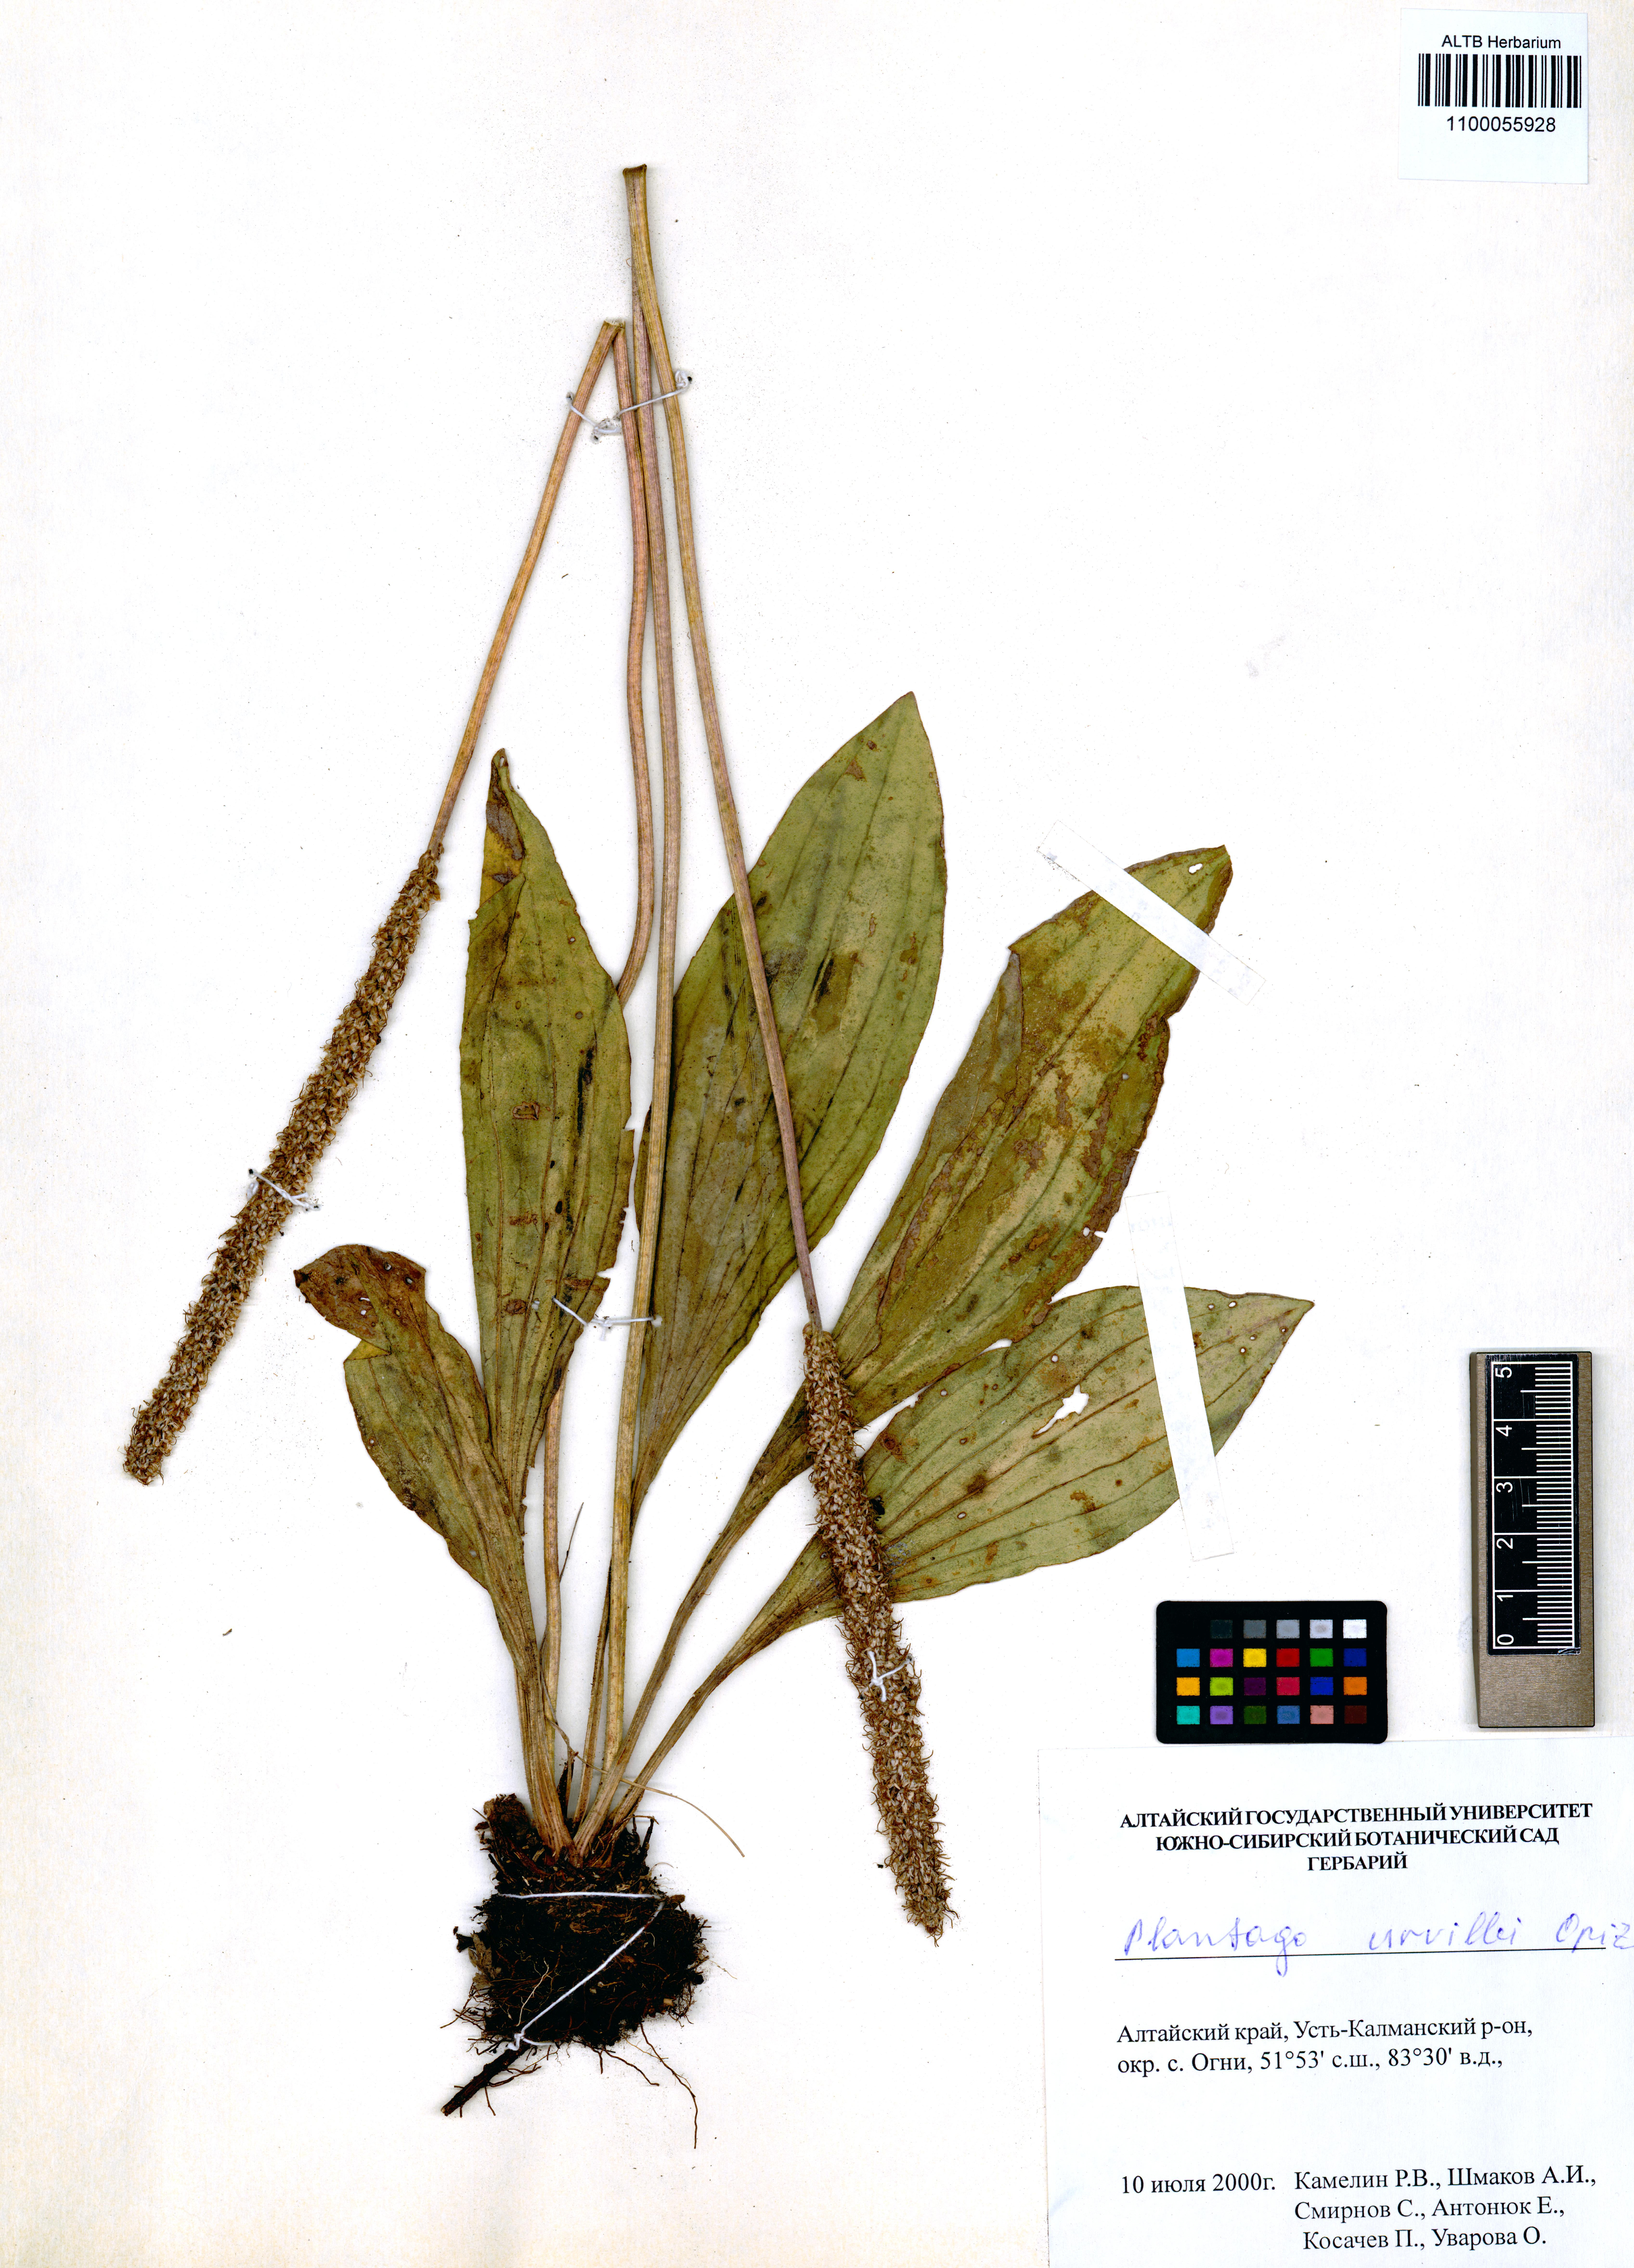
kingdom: Plantae
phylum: Tracheophyta
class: Magnoliopsida
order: Lamiales
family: Plantaginaceae
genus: Plantago
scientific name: Plantago urvillei
